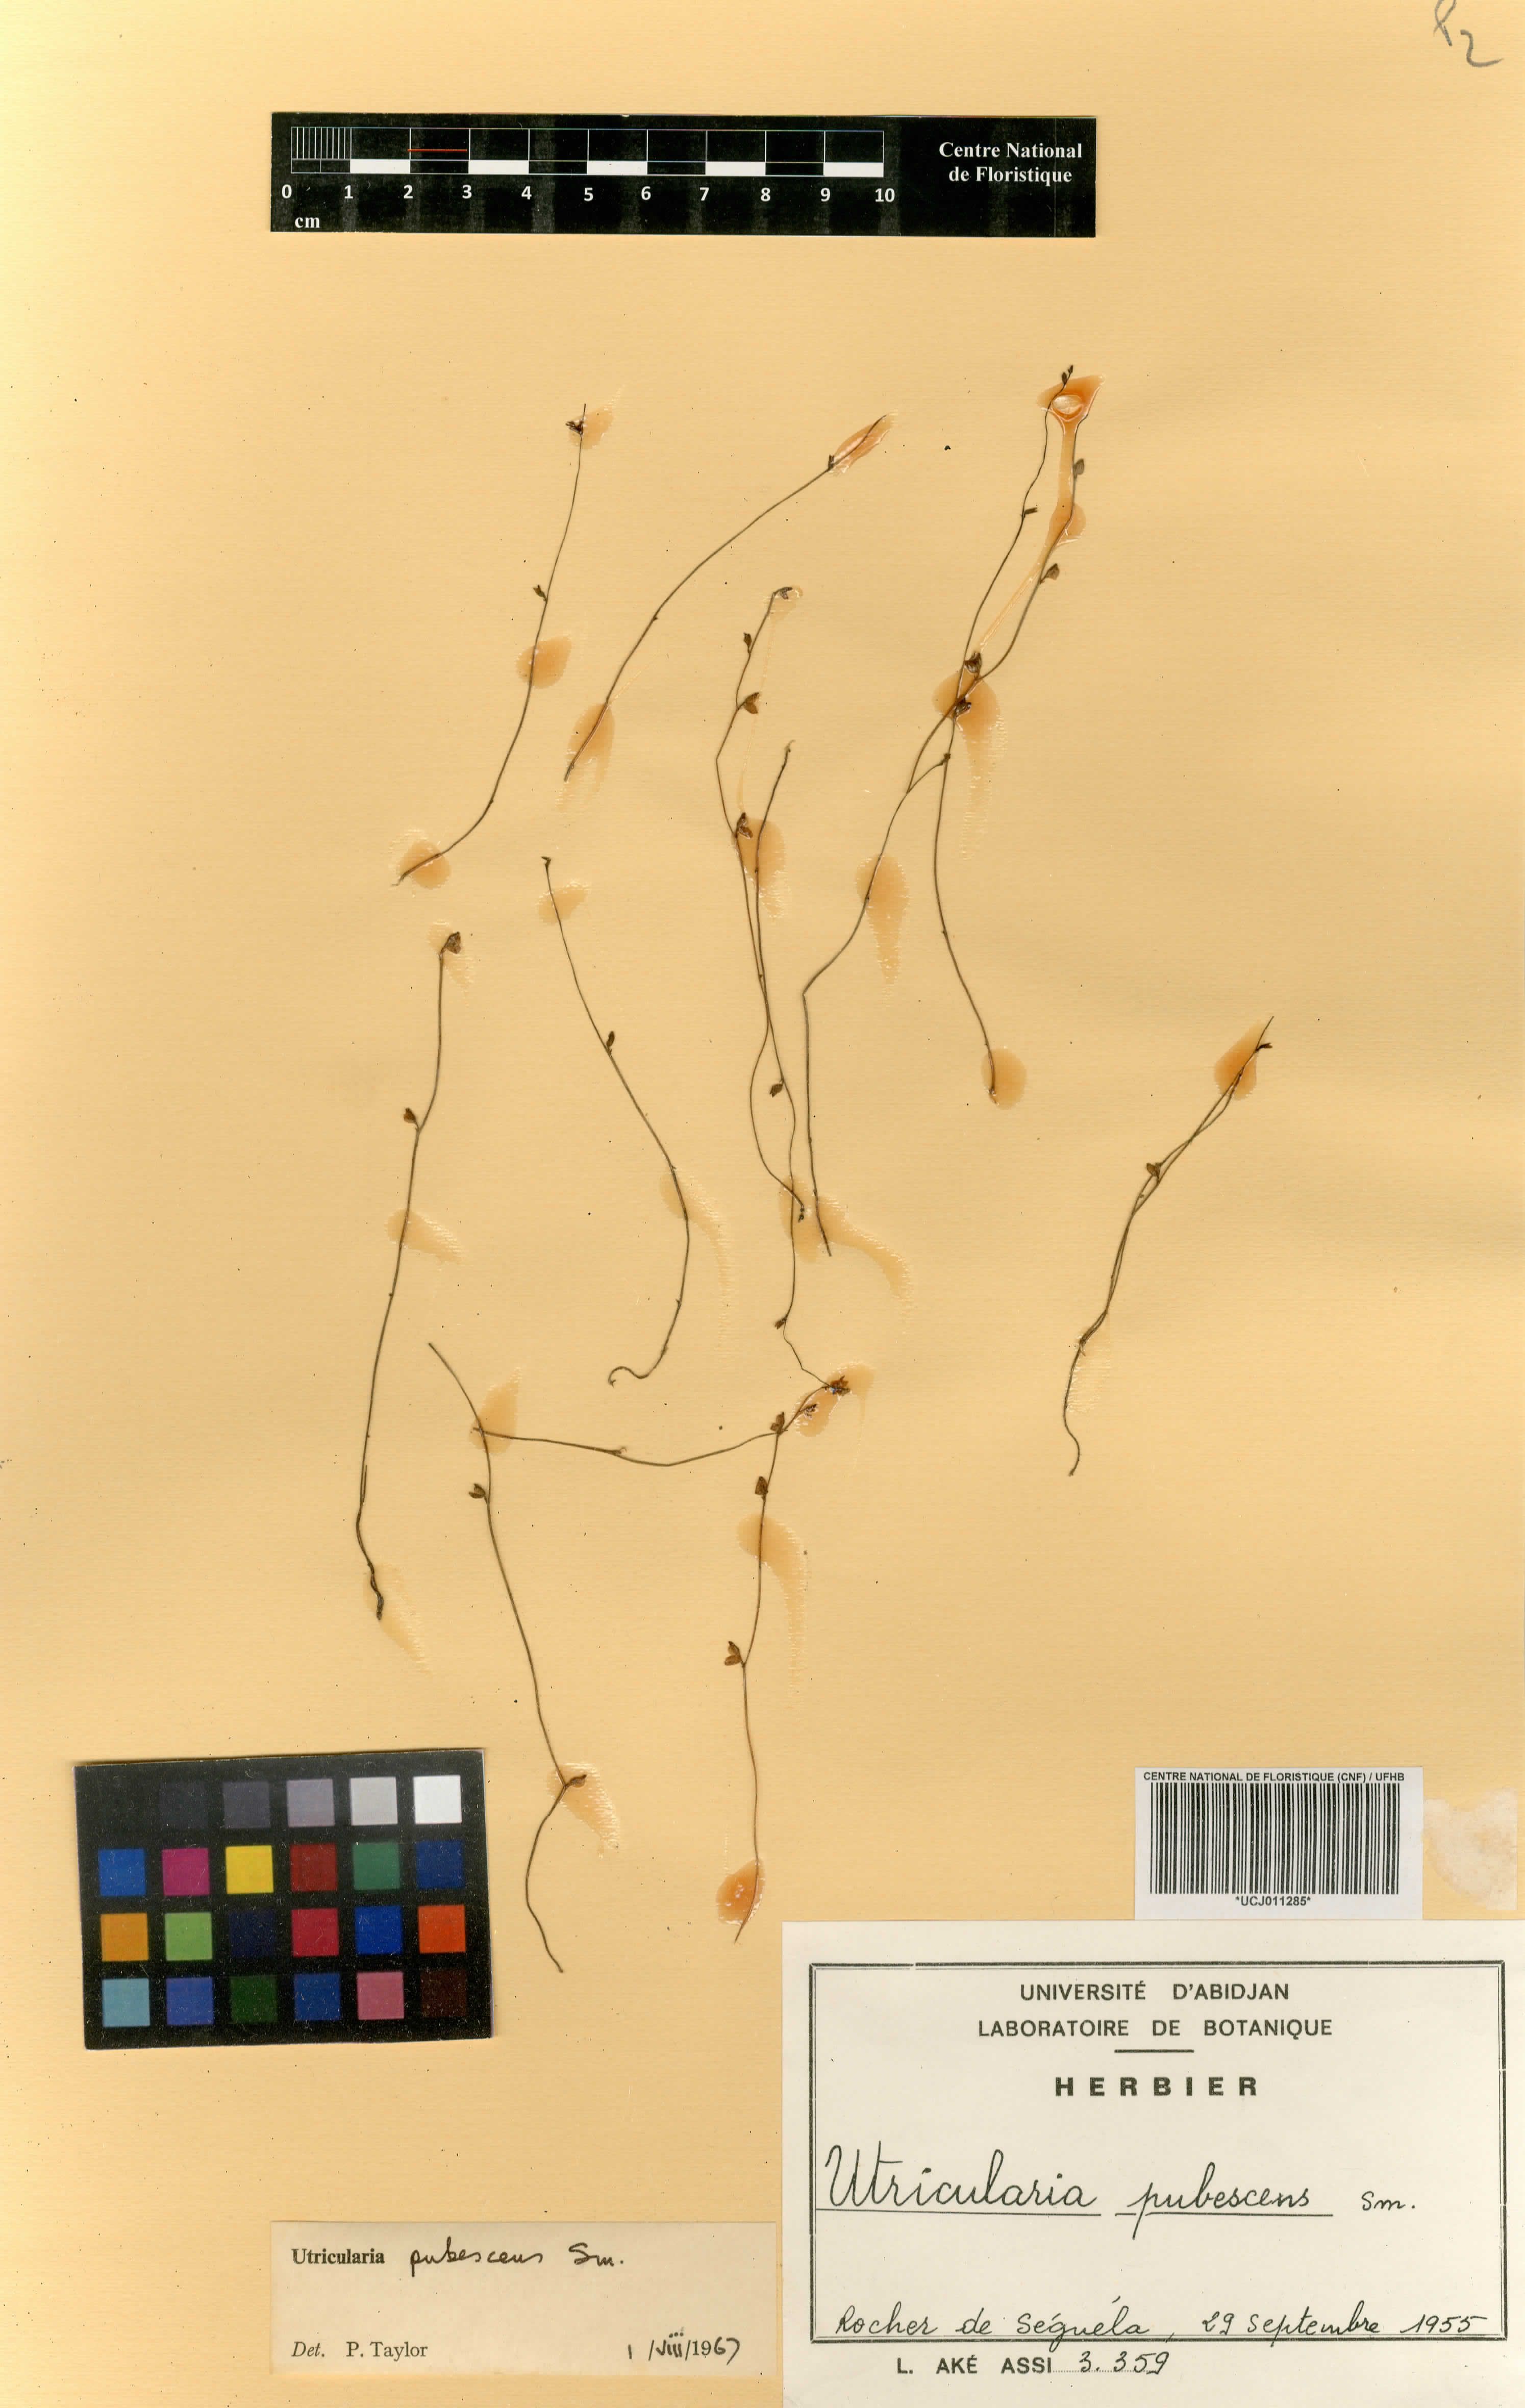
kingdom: Plantae
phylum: Tracheophyta
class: Magnoliopsida
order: Lamiales
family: Lentibulariaceae
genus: Utricularia
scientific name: Utricularia pubescens
